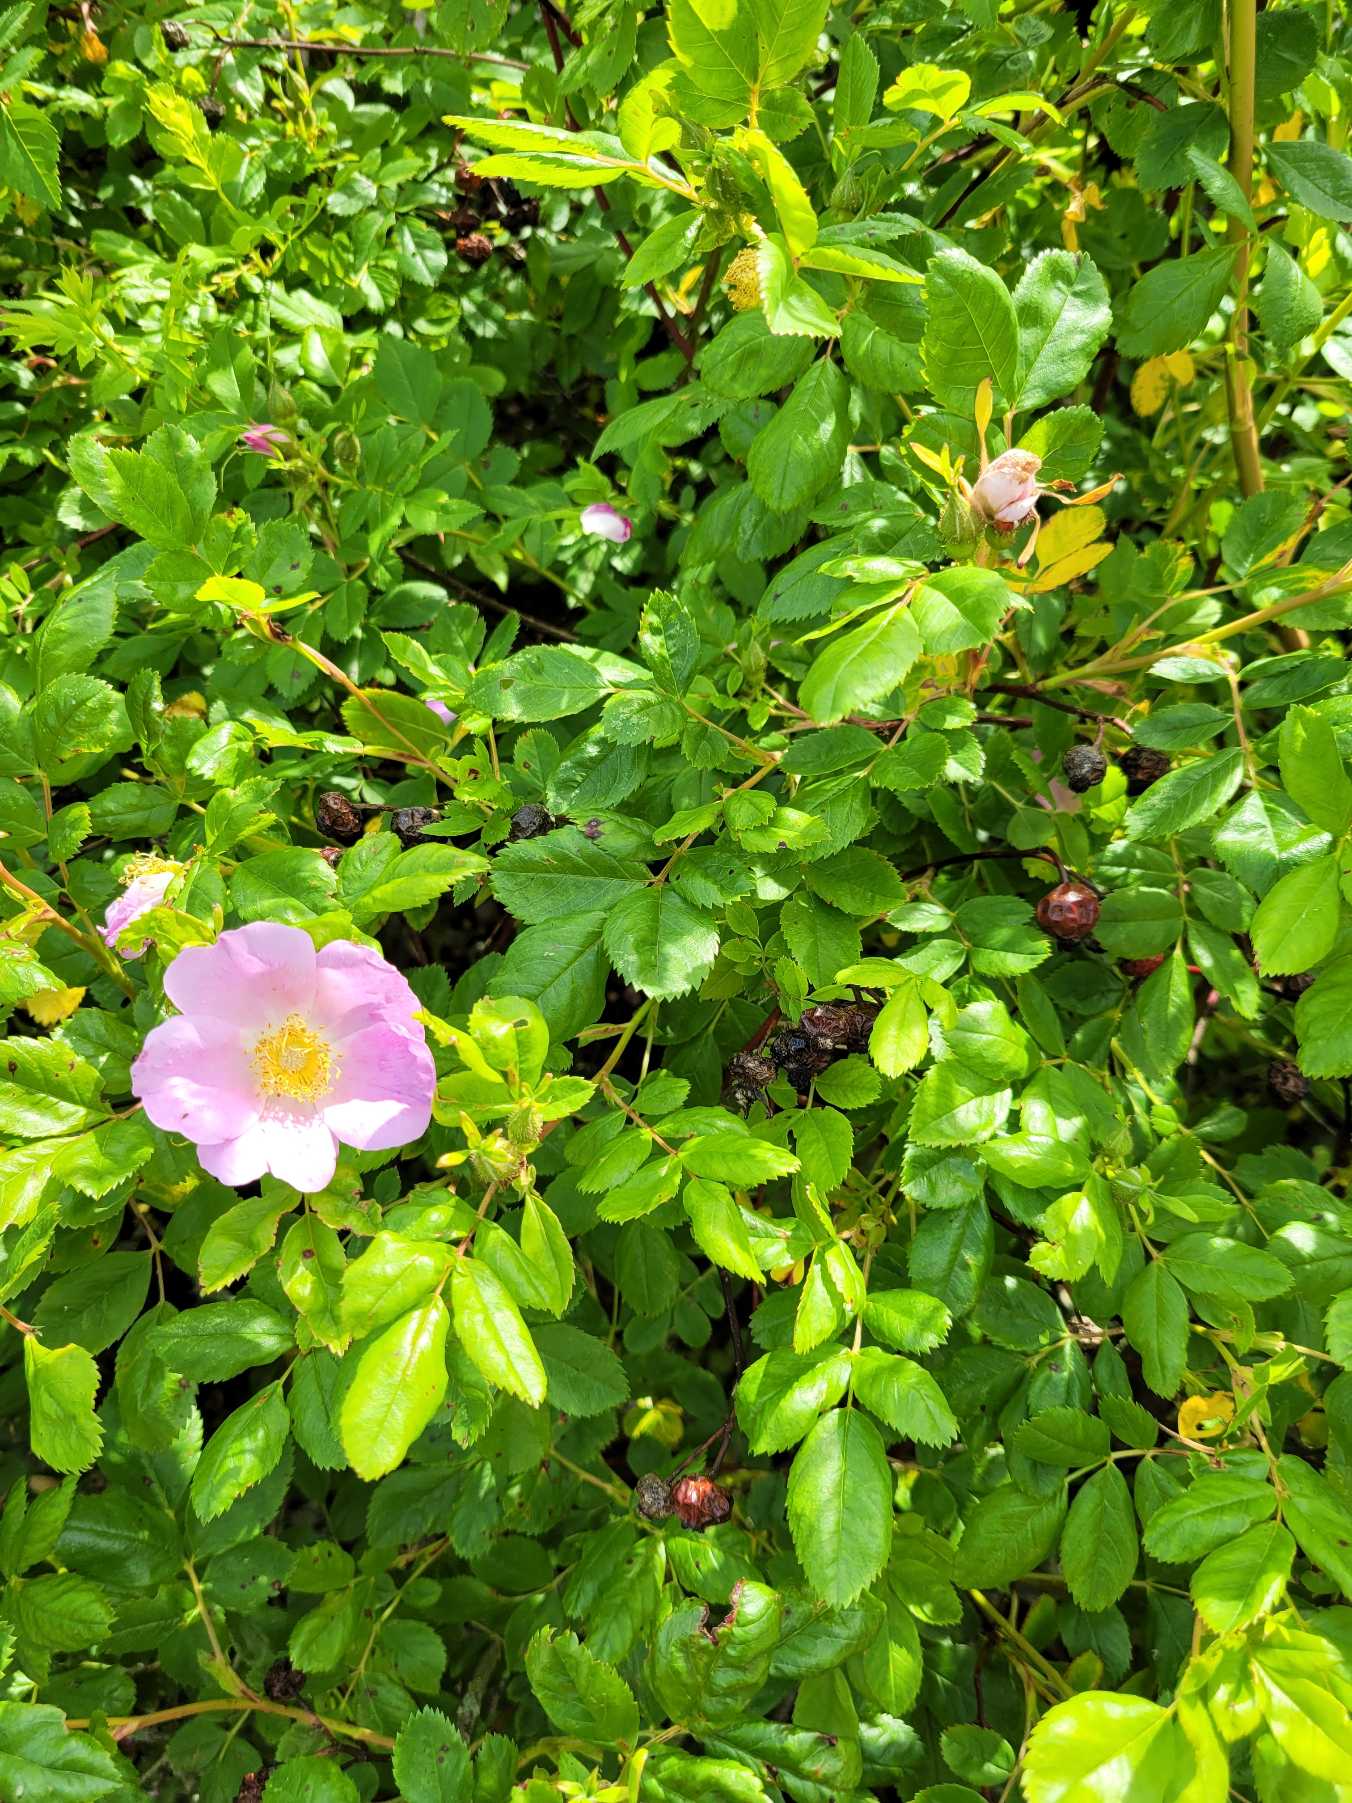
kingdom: Plantae
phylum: Tracheophyta
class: Magnoliopsida
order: Rosales
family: Rosaceae
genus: Rosa
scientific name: Rosa carolina
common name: Glansbladet rose
